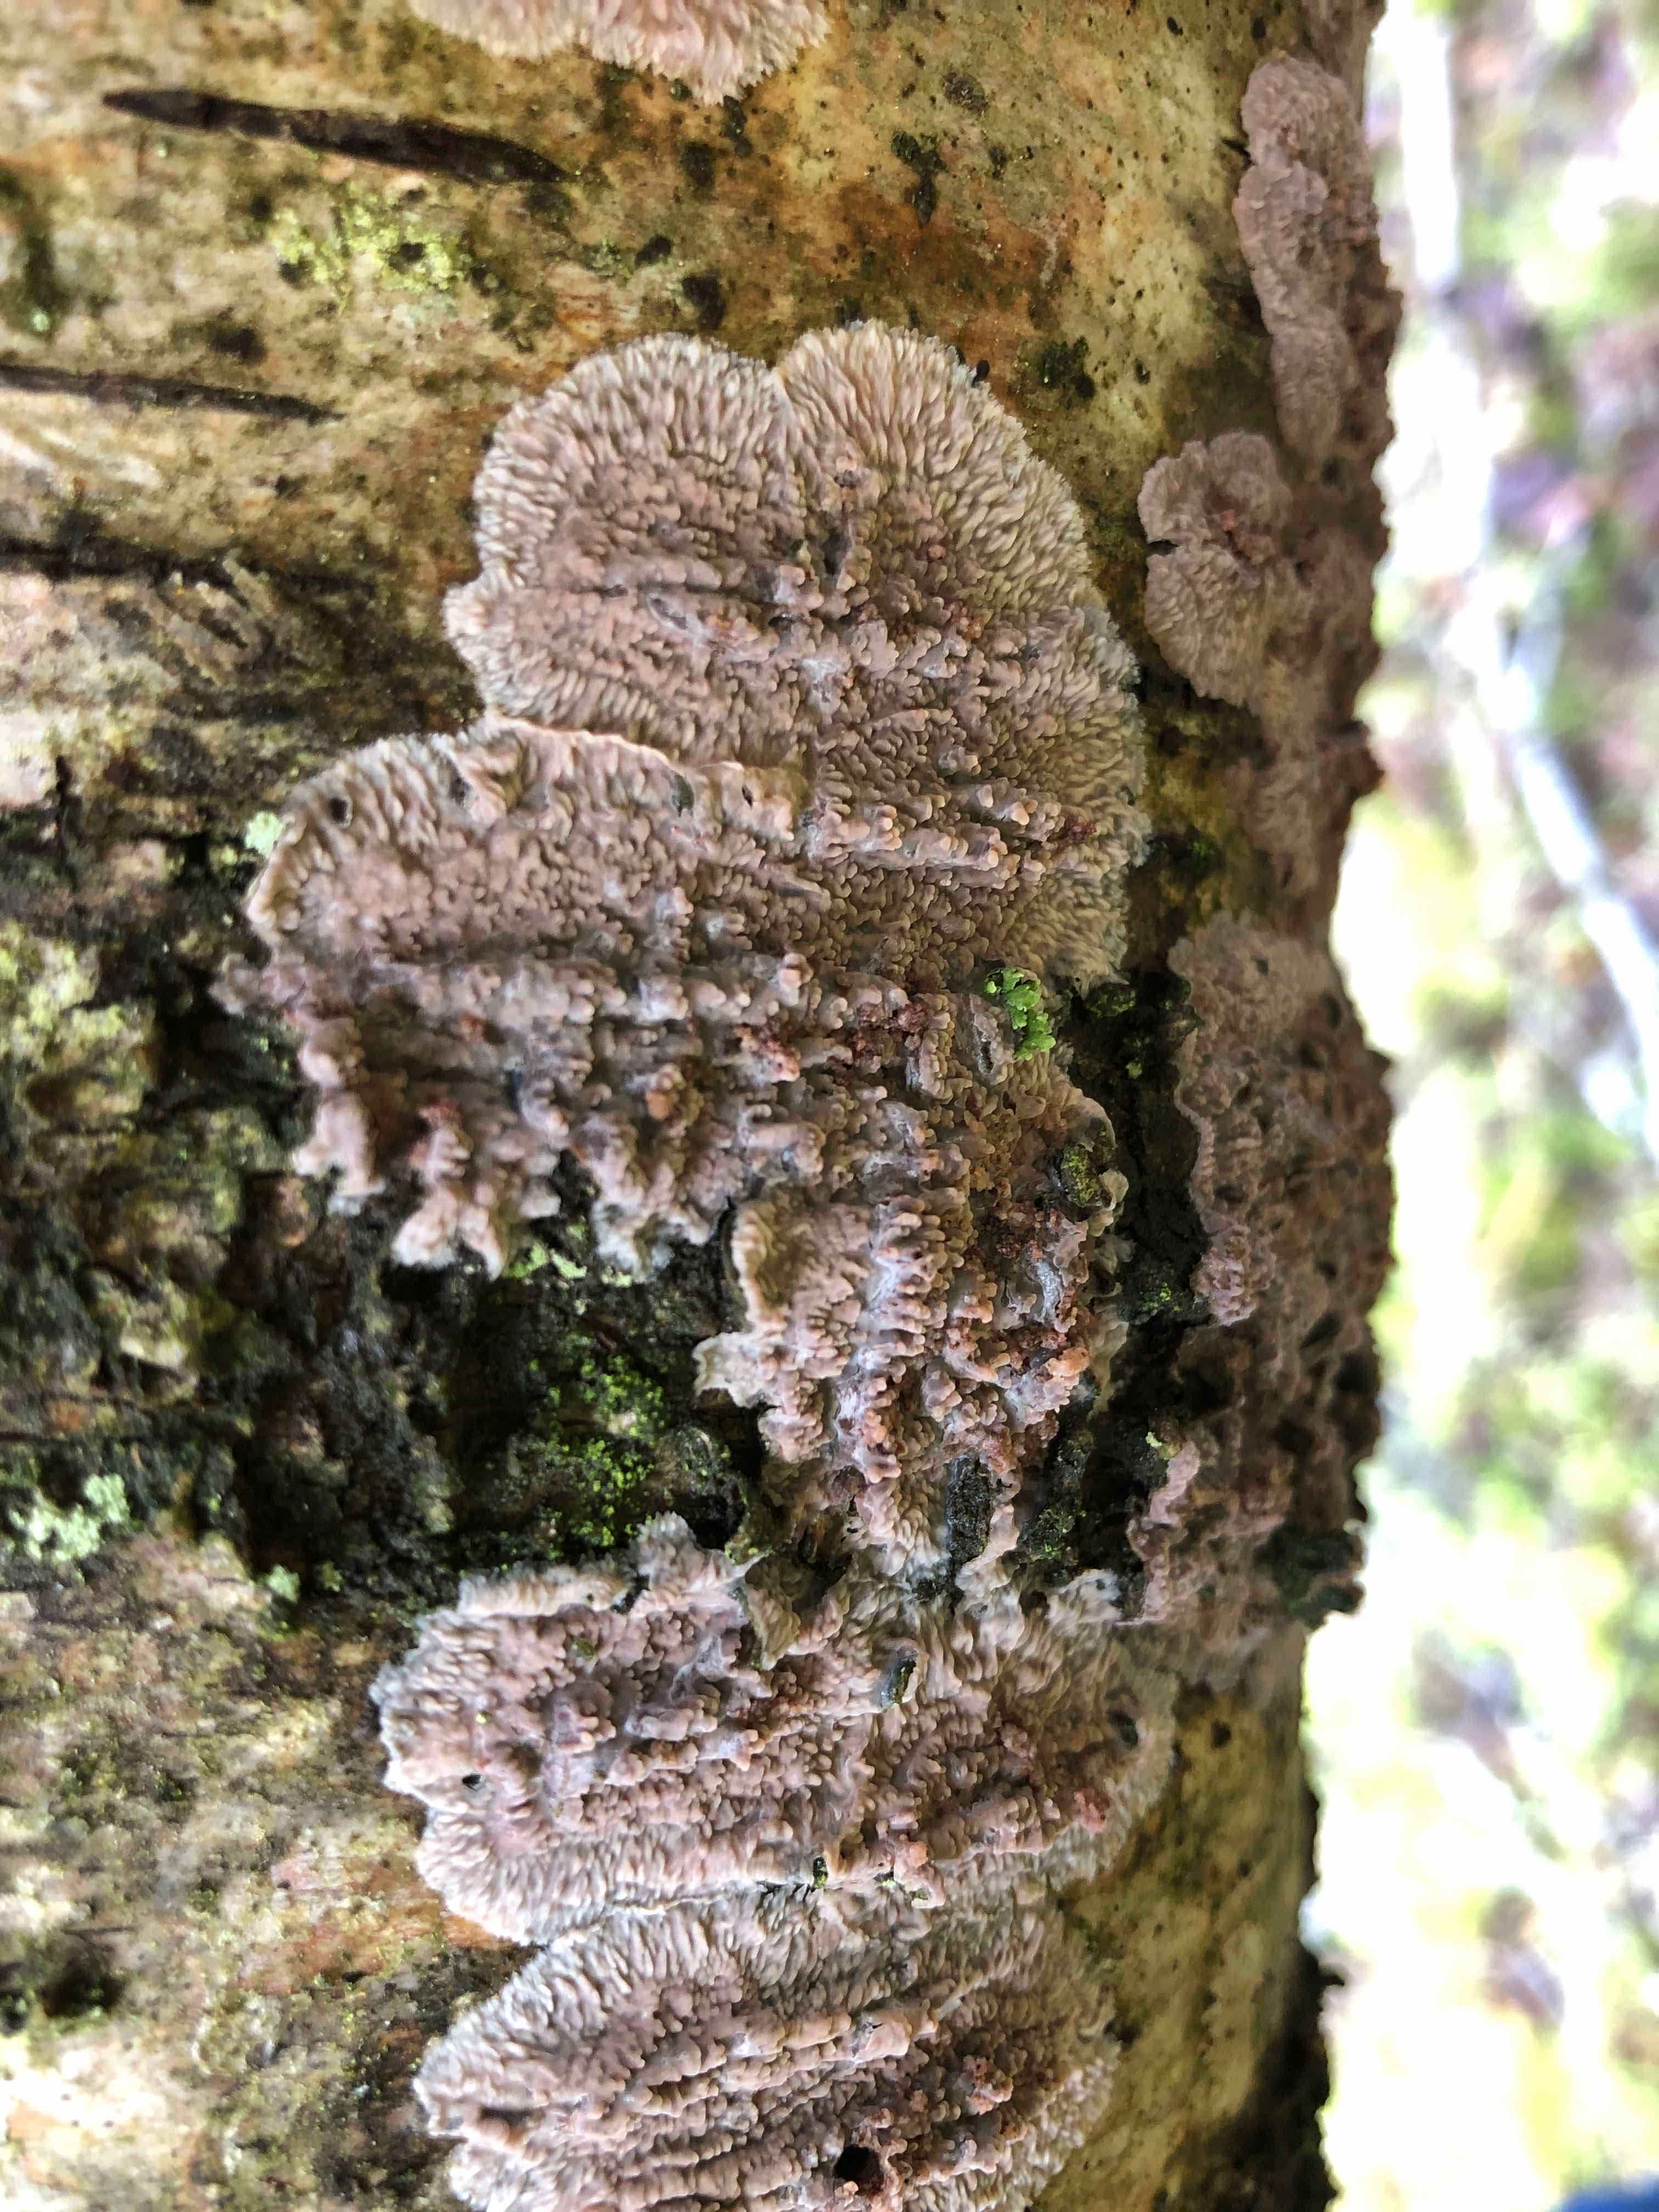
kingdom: Fungi
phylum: Basidiomycota
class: Agaricomycetes
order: Polyporales
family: Meruliaceae
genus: Phlebia
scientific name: Phlebia radiata
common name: stråle-åresvamp
